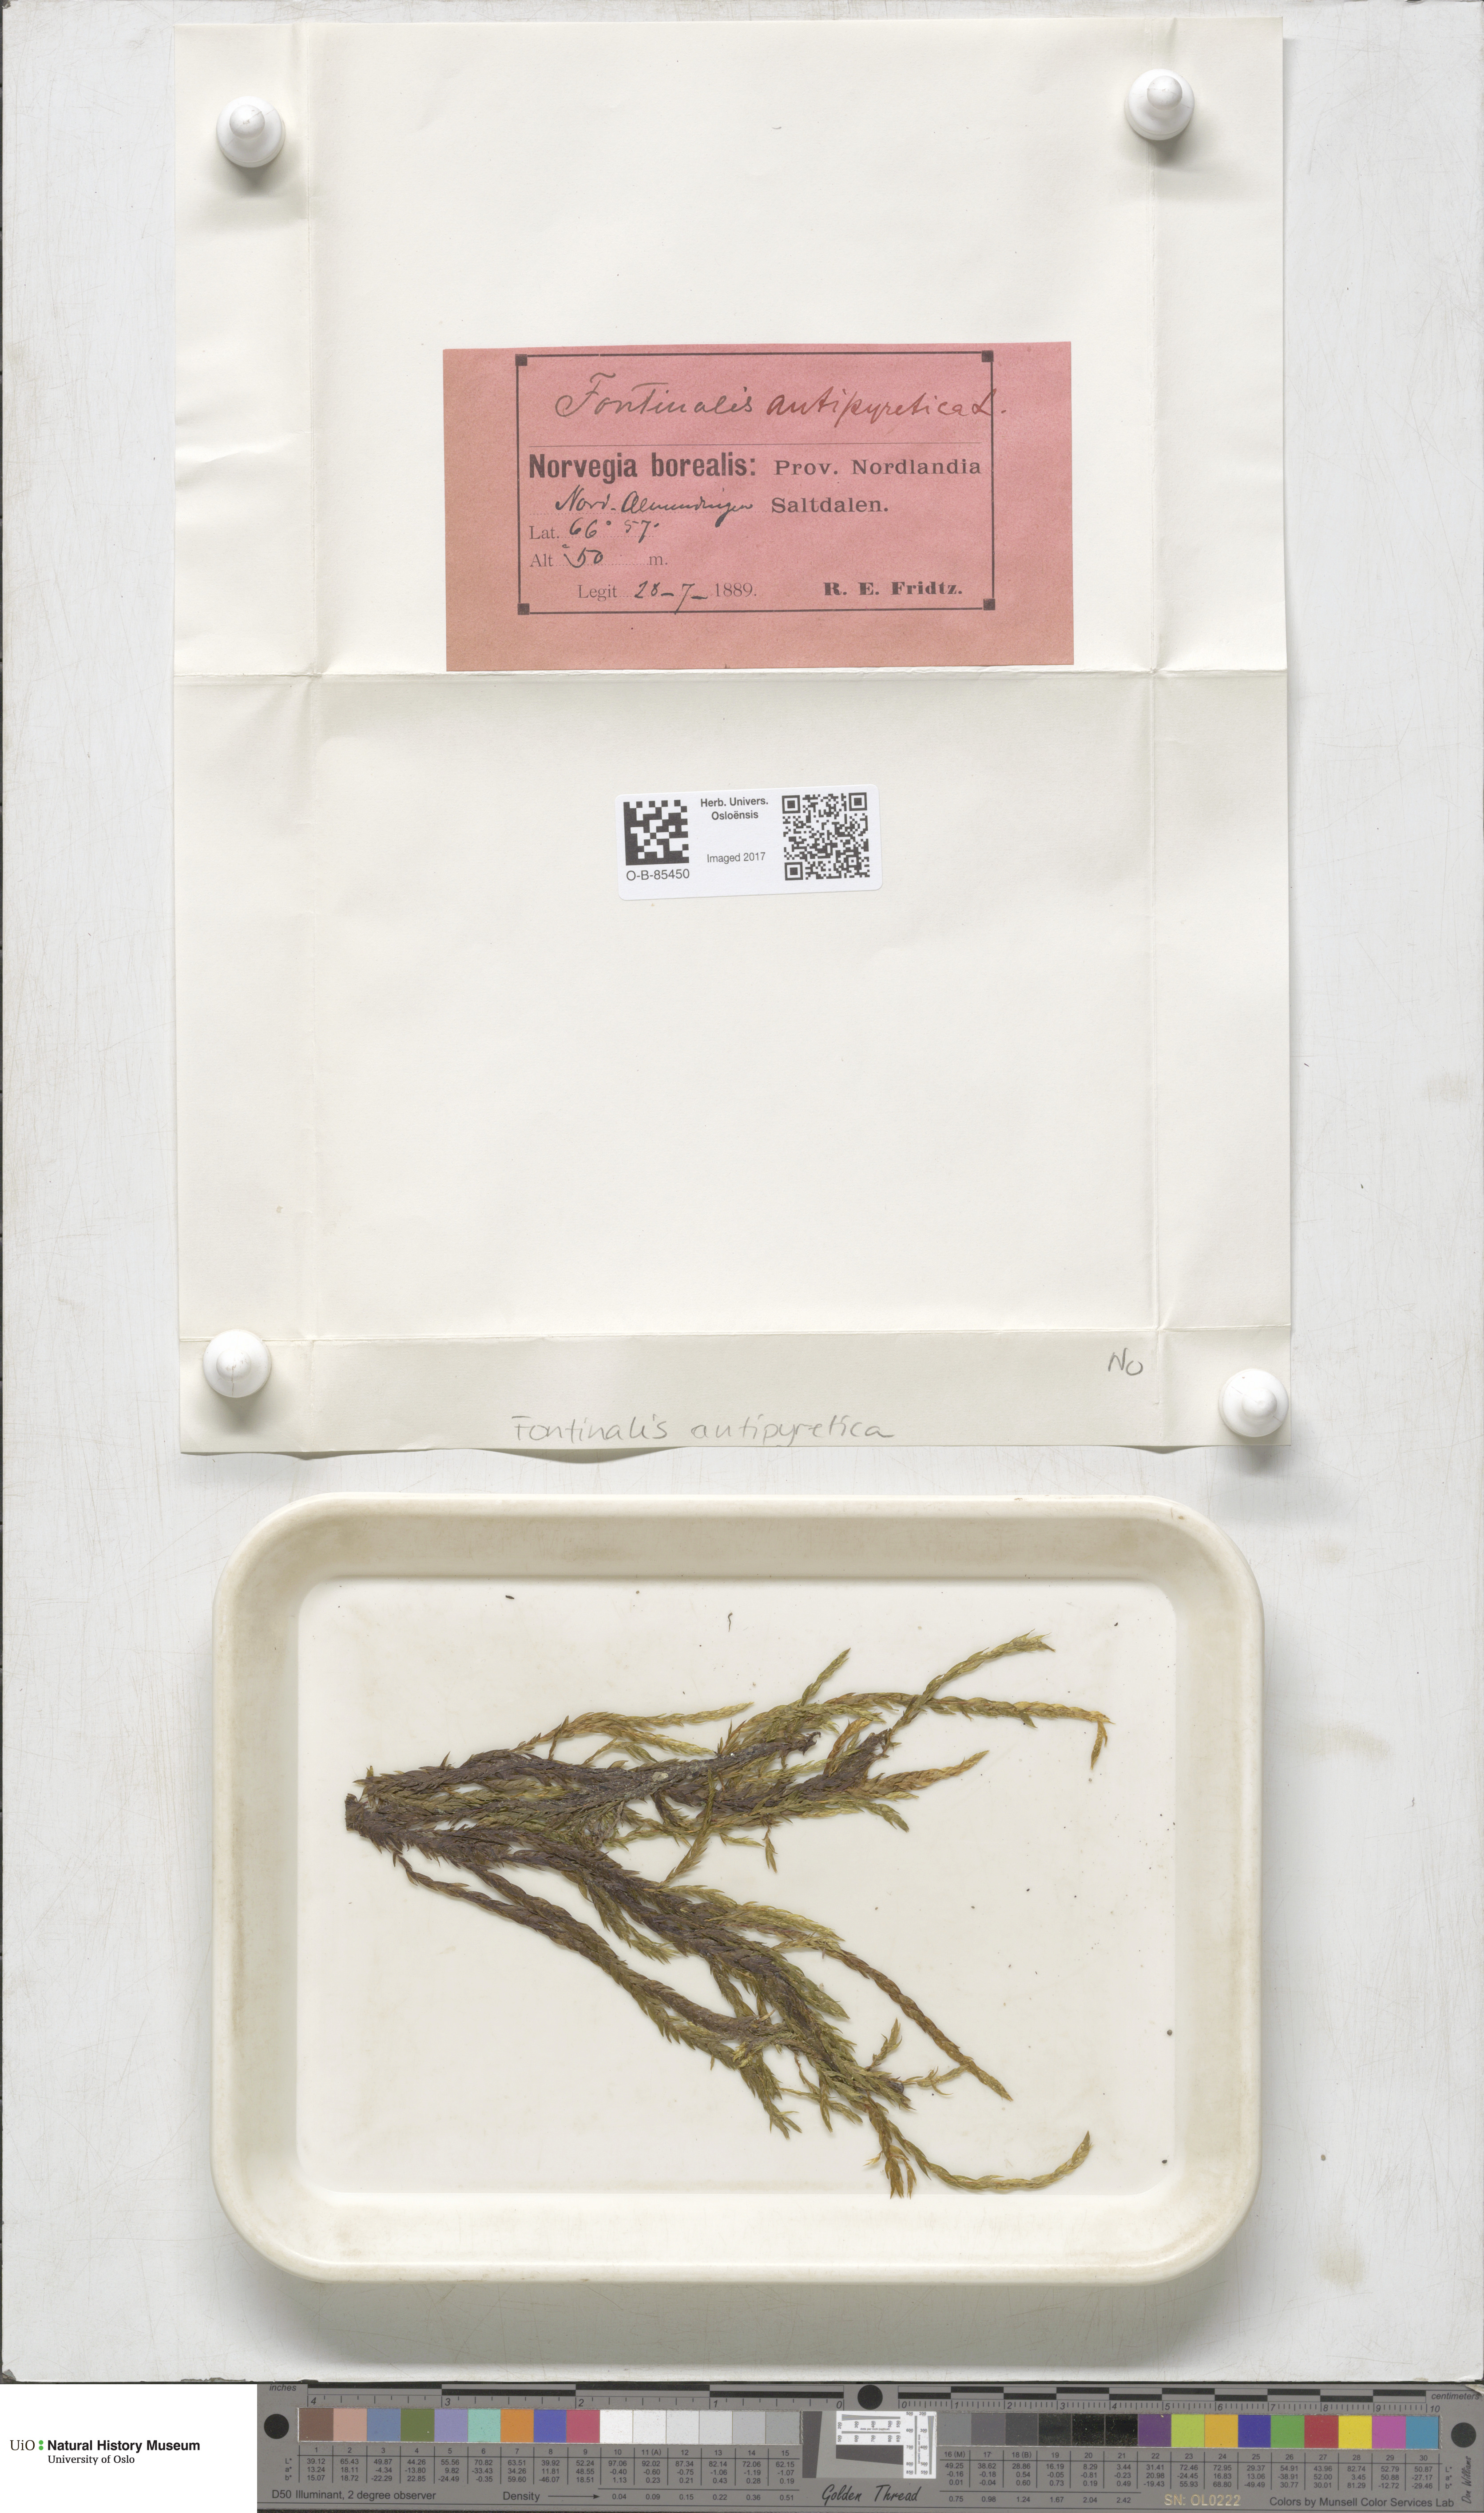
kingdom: Plantae
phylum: Bryophyta
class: Bryopsida
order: Hypnales
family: Fontinalaceae
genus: Fontinalis
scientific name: Fontinalis antipyretica
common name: Greater water-moss
